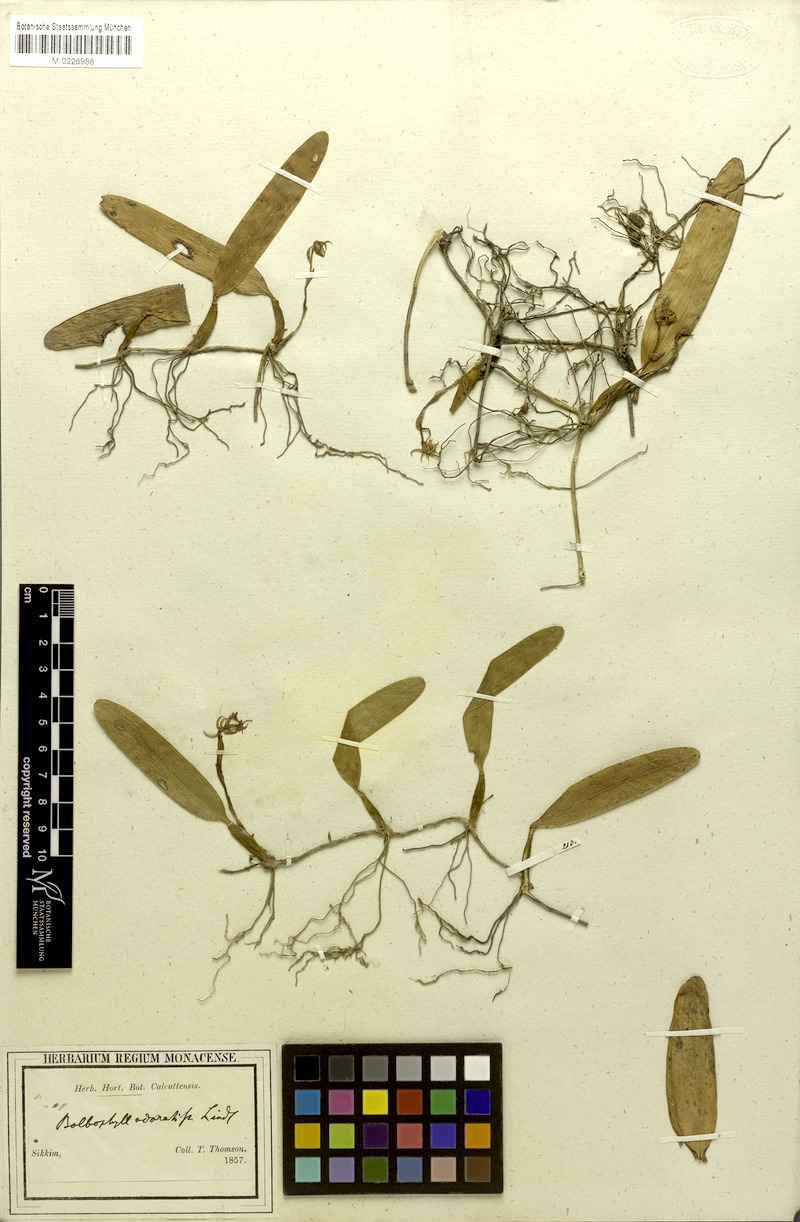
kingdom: Plantae
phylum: Tracheophyta
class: Liliopsida
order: Asparagales
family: Orchidaceae
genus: Bulbophyllum
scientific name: Bulbophyllum odoratissimum
